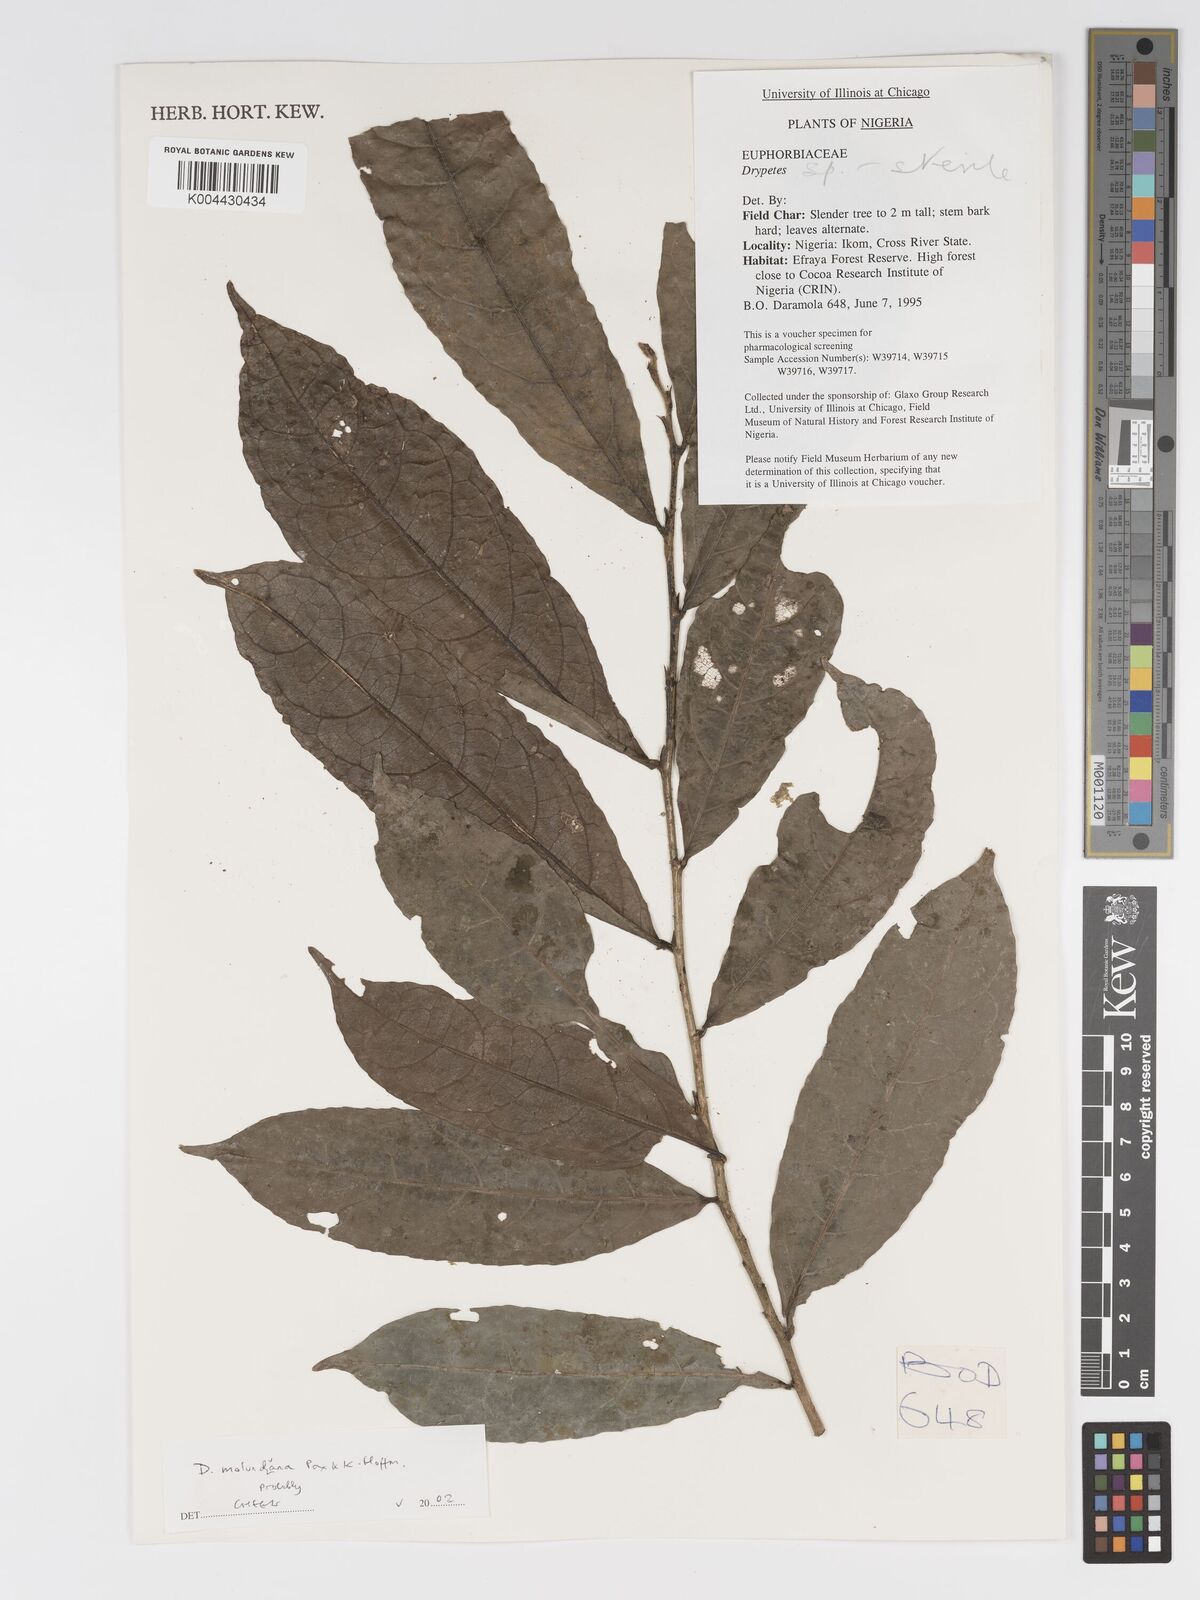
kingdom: Plantae
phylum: Tracheophyta
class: Magnoliopsida
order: Malpighiales
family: Putranjivaceae
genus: Drypetes
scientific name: Drypetes molunduana
